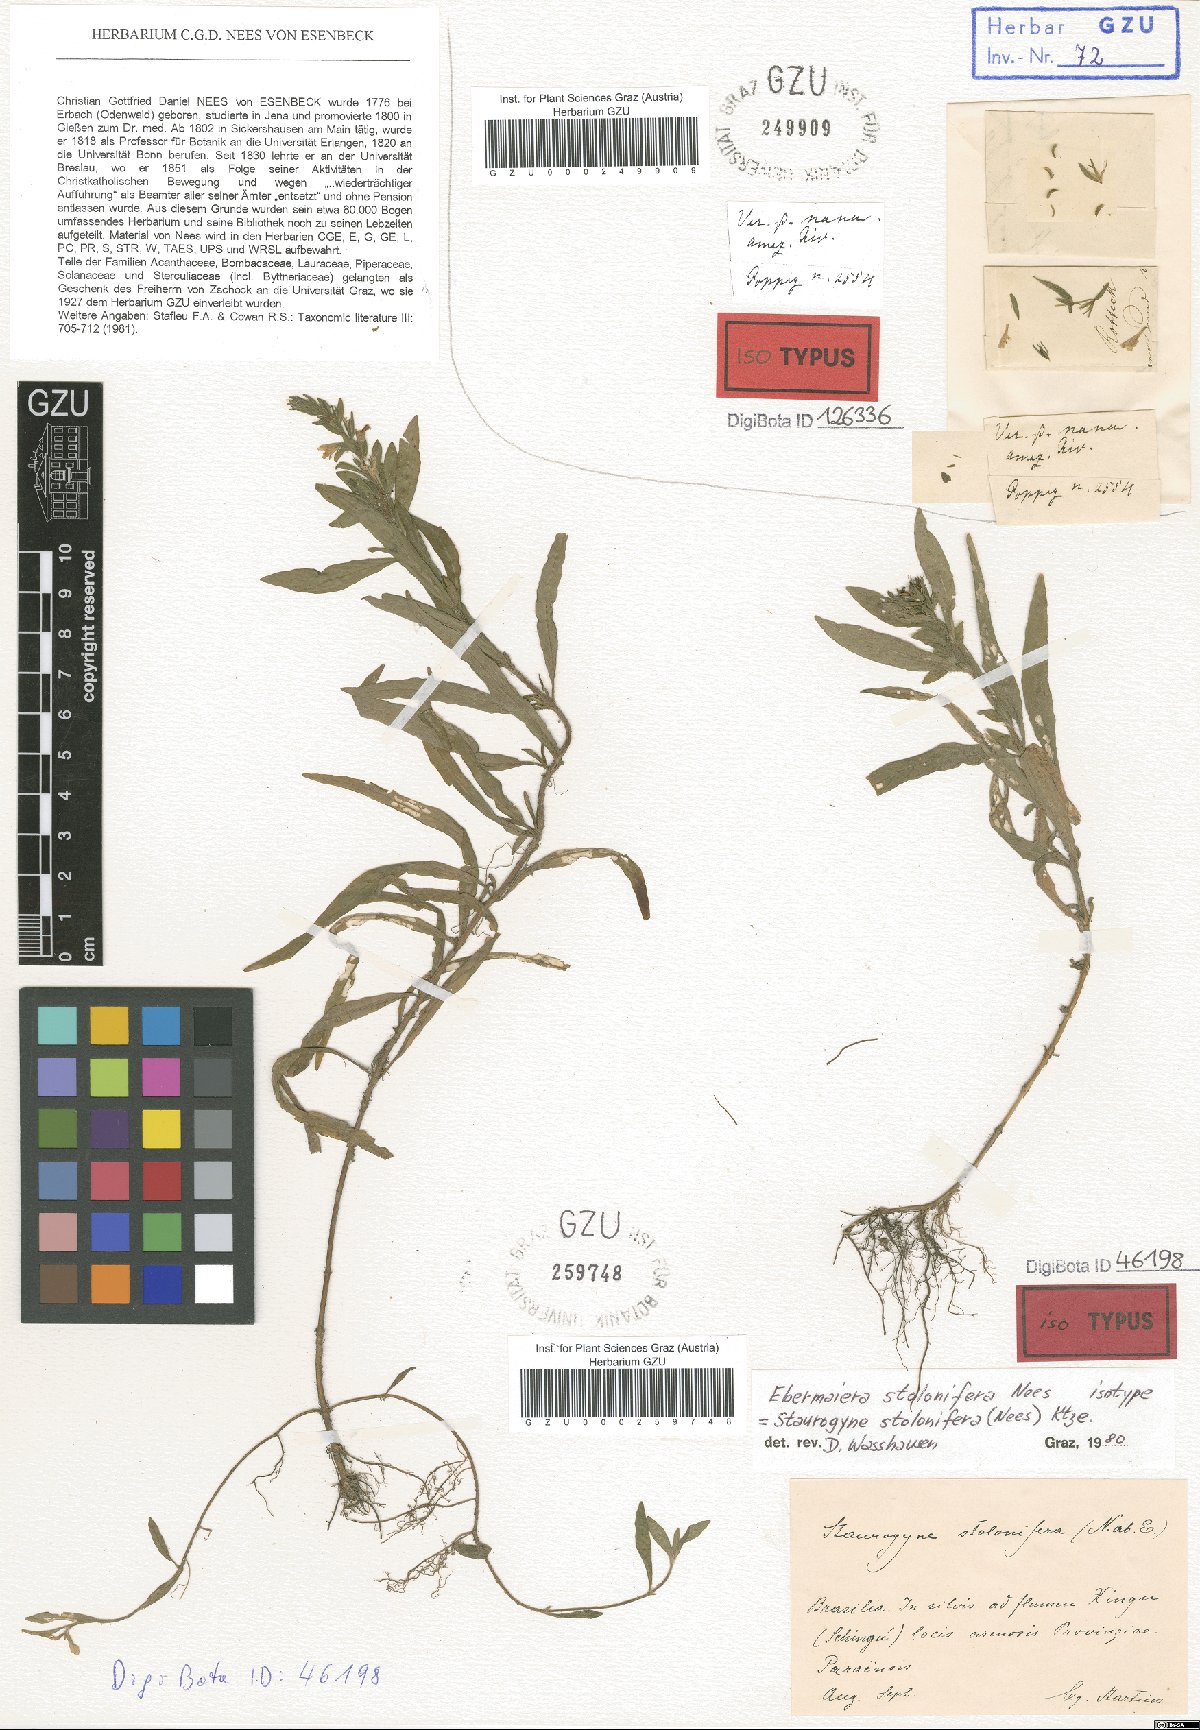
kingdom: Plantae
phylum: Tracheophyta
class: Magnoliopsida
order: Lamiales
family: Acanthaceae
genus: Staurogyne
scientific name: Staurogyne stolonifera
